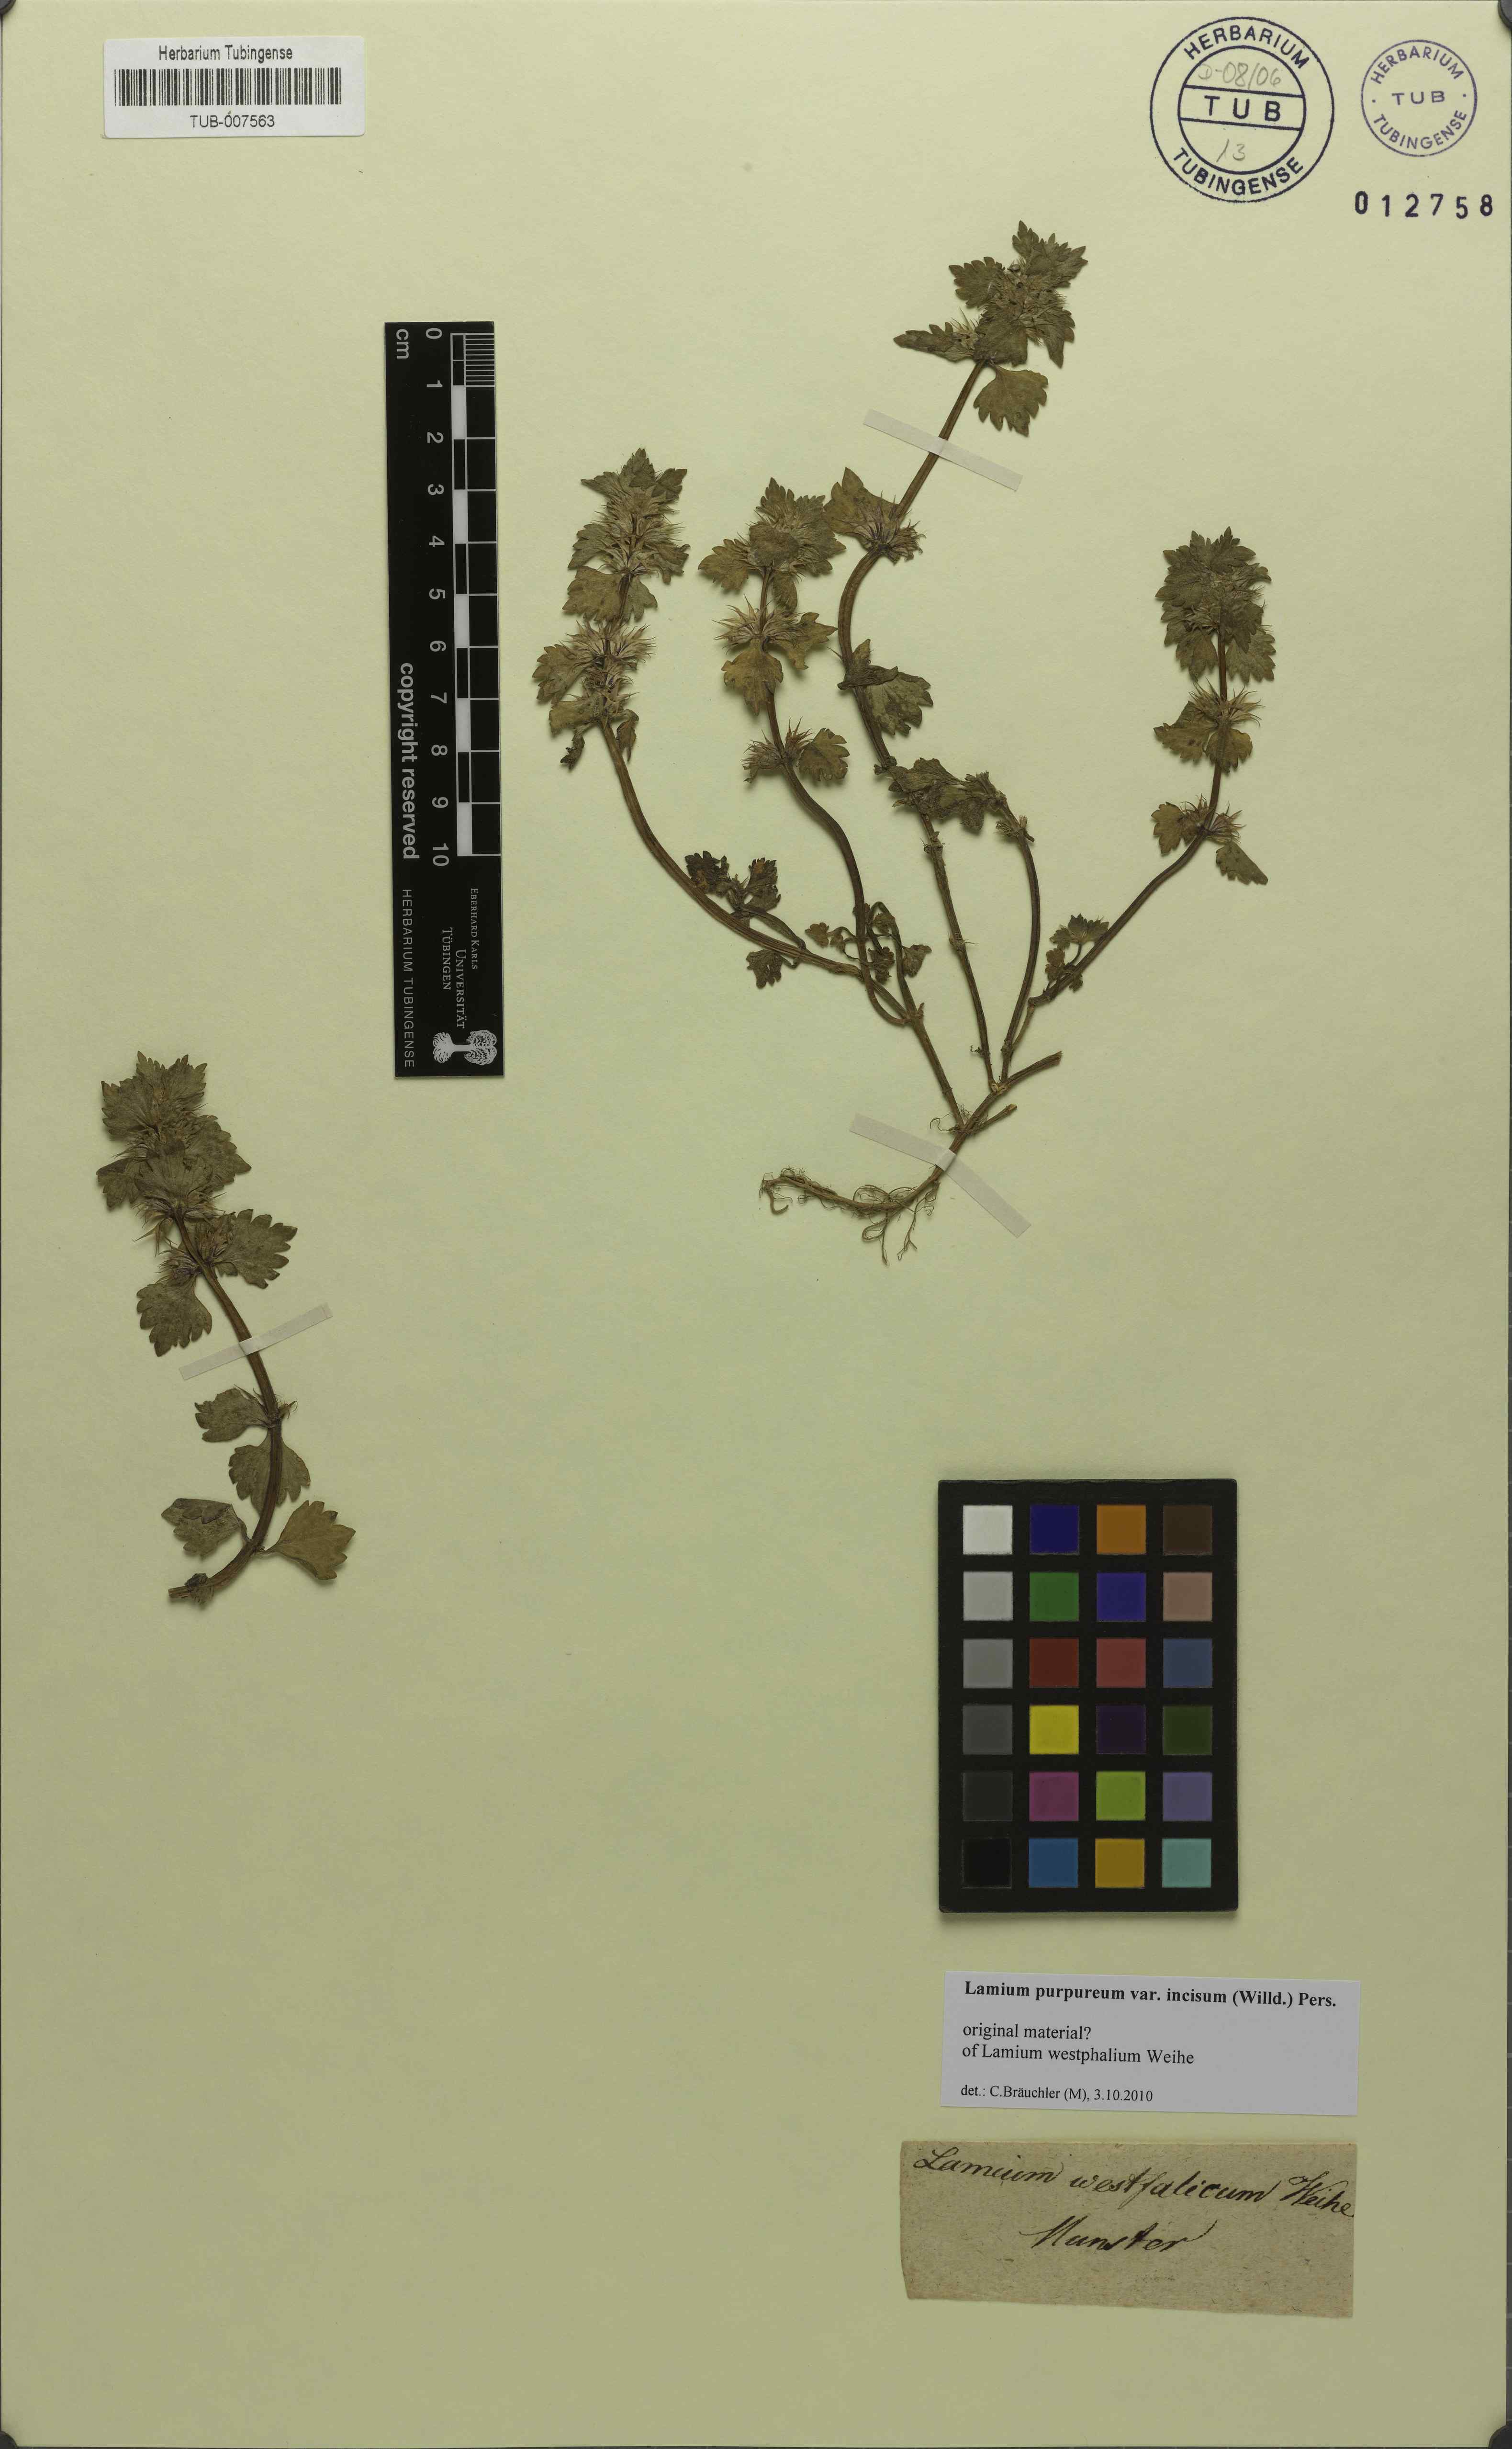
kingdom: Plantae
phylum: Tracheophyta
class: Magnoliopsida
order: Lamiales
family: Lamiaceae
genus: Lamium
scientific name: Lamium purpureum
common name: Red dead-nettle
